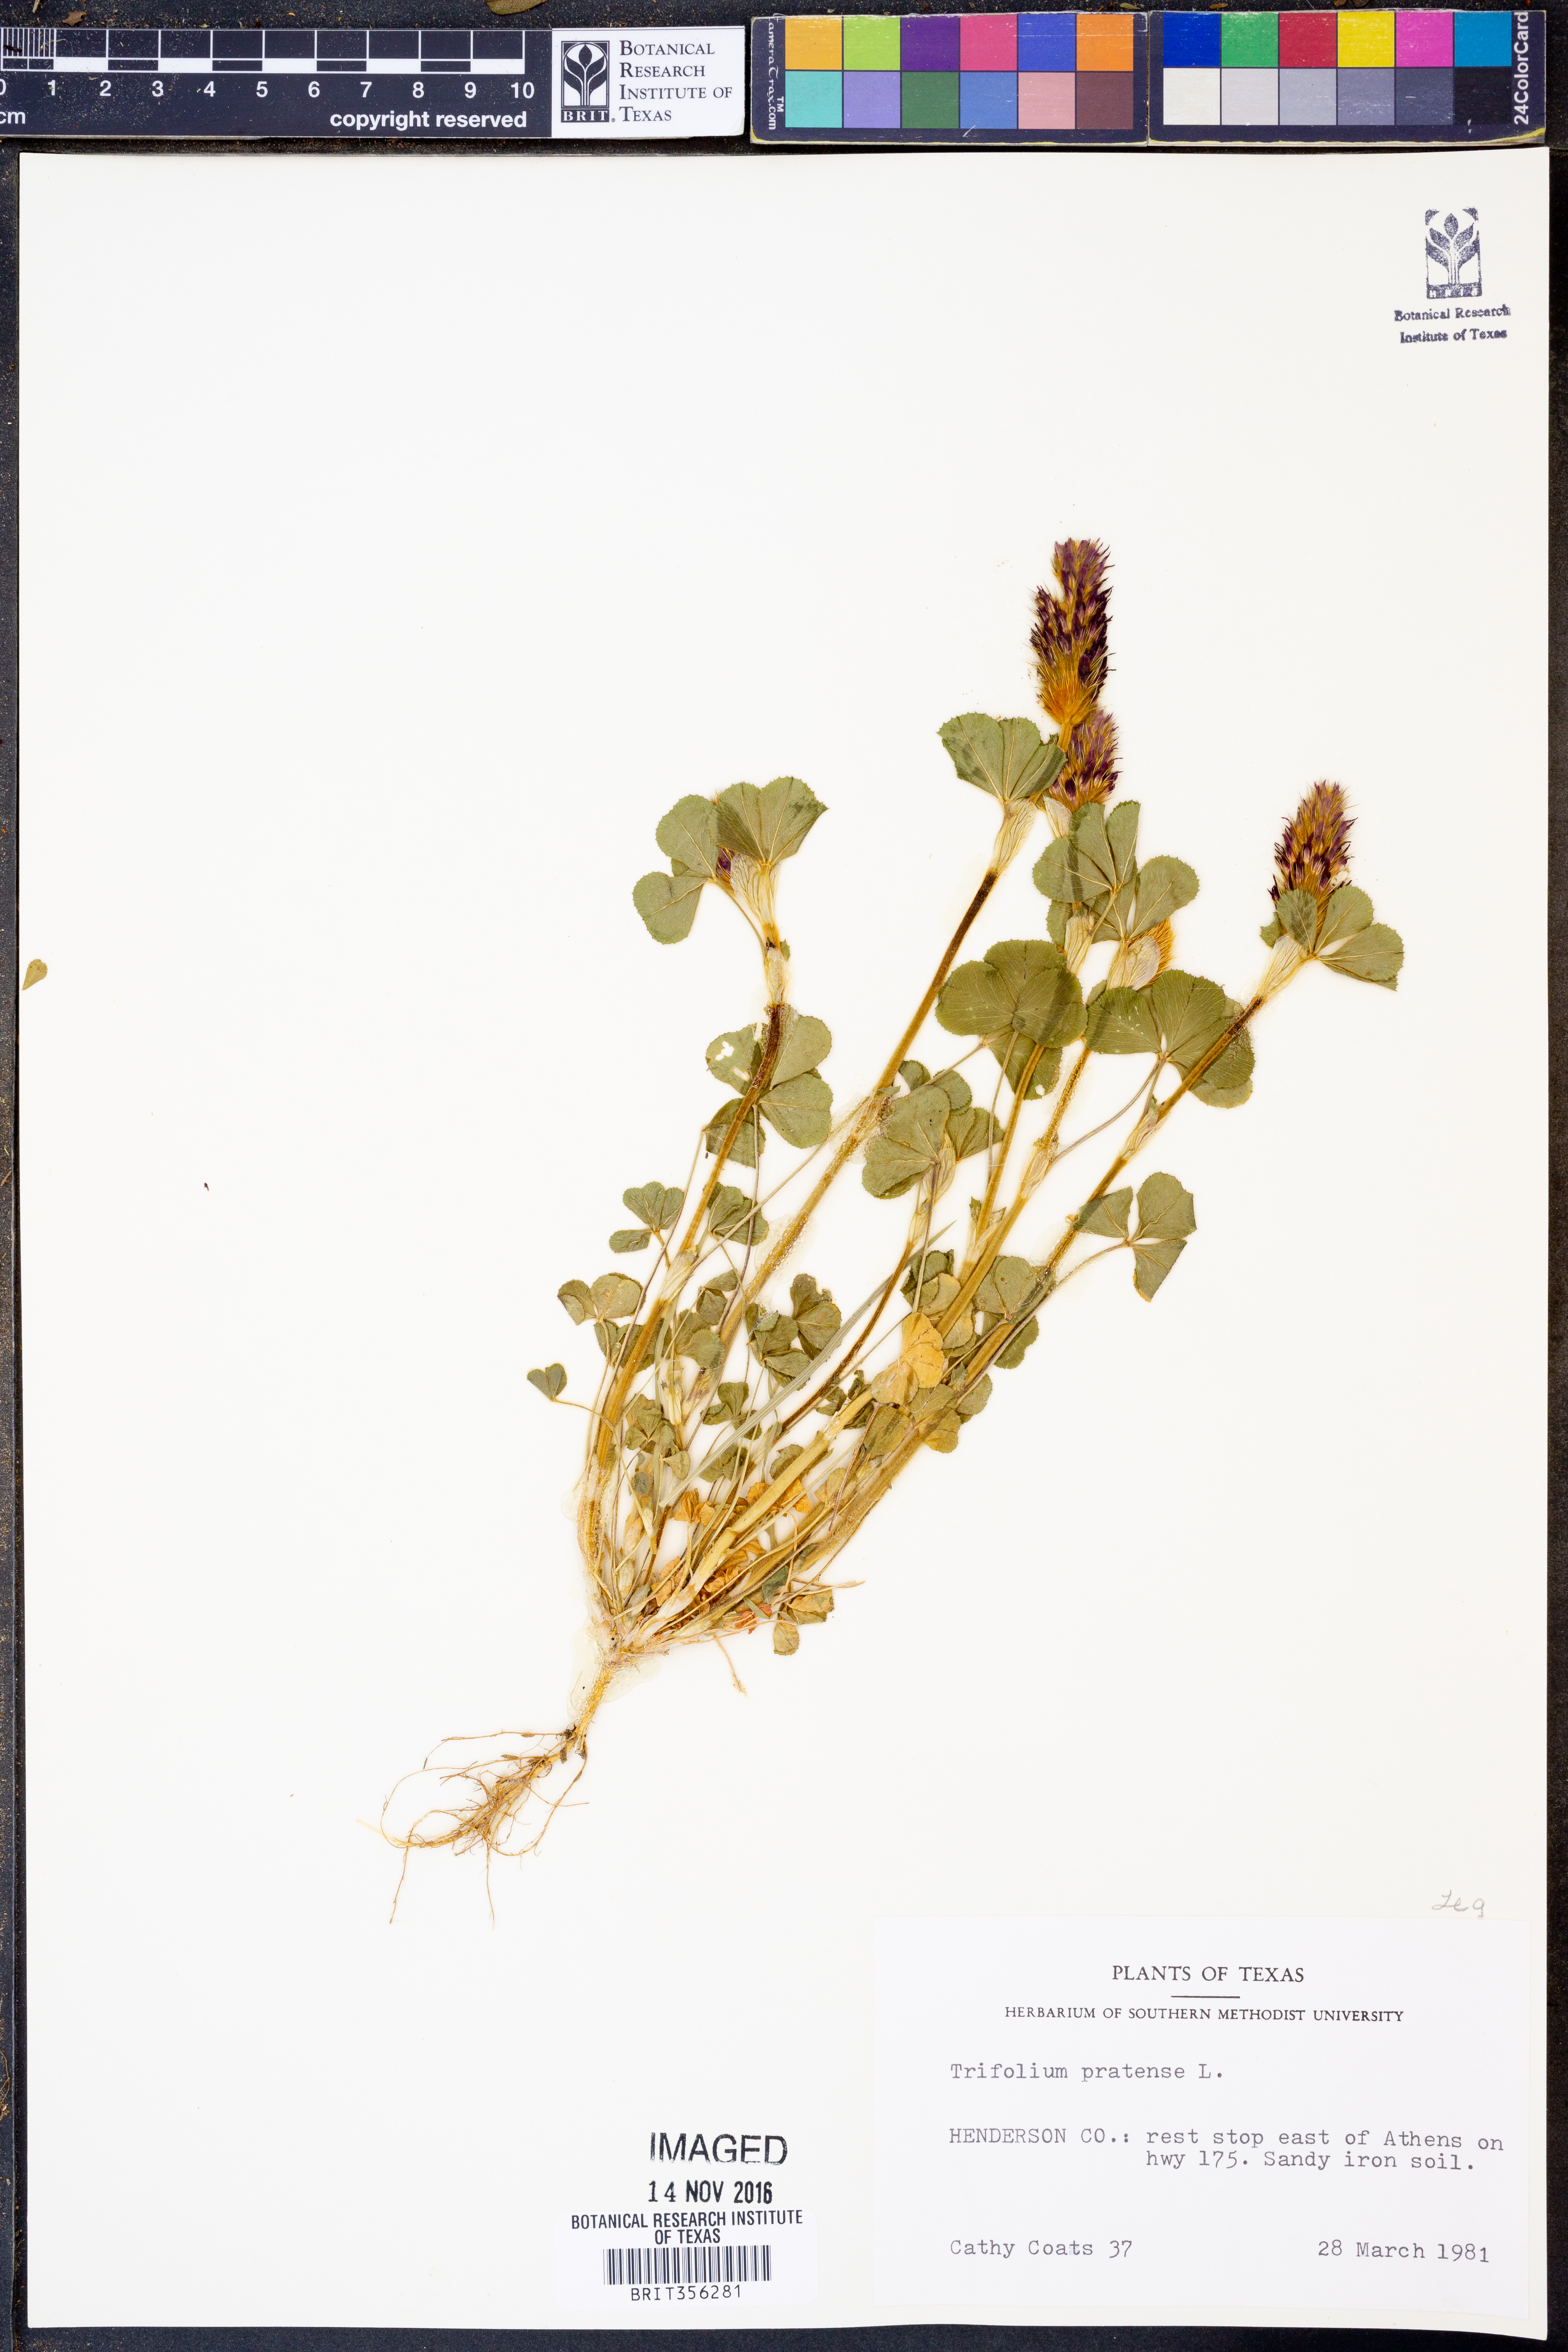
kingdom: Plantae
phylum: Tracheophyta
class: Magnoliopsida
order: Fabales
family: Fabaceae
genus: Trifolium
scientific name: Trifolium pratense
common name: Red clover
